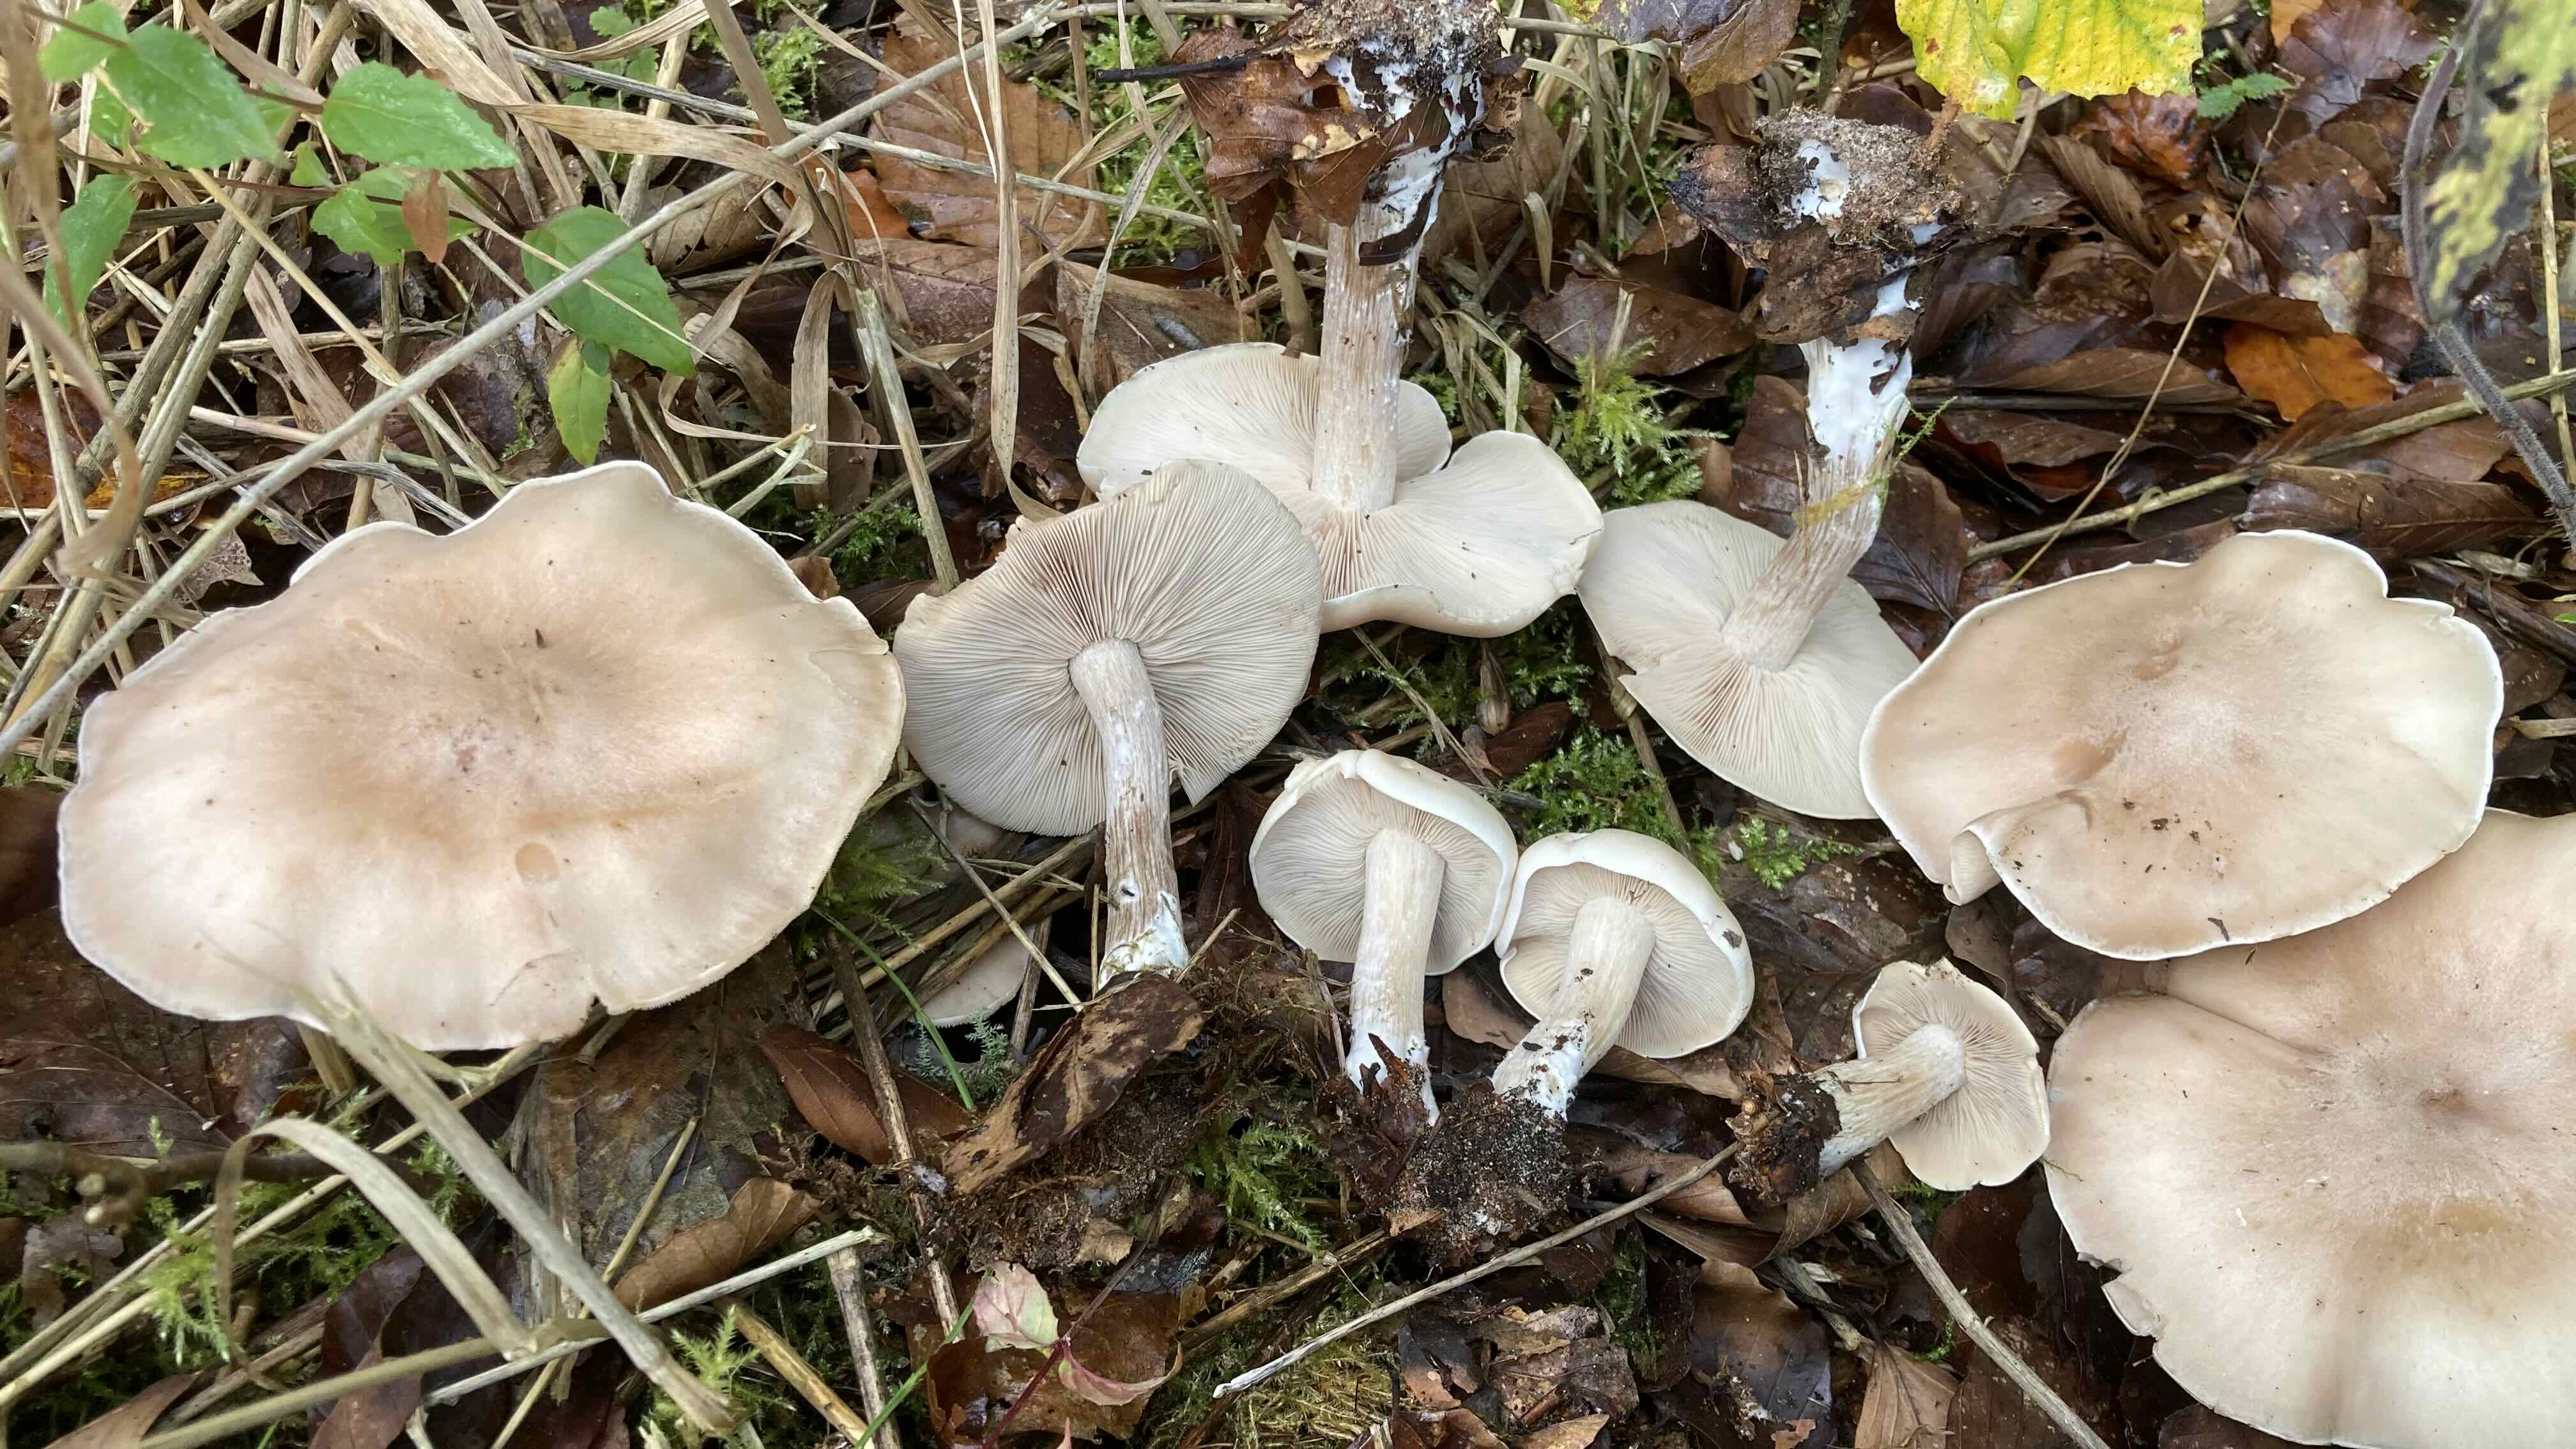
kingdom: Fungi
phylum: Basidiomycota
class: Agaricomycetes
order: Agaricales
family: Tricholomataceae
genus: Lepista
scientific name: Lepista irina
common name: violduftende hekseringshat
